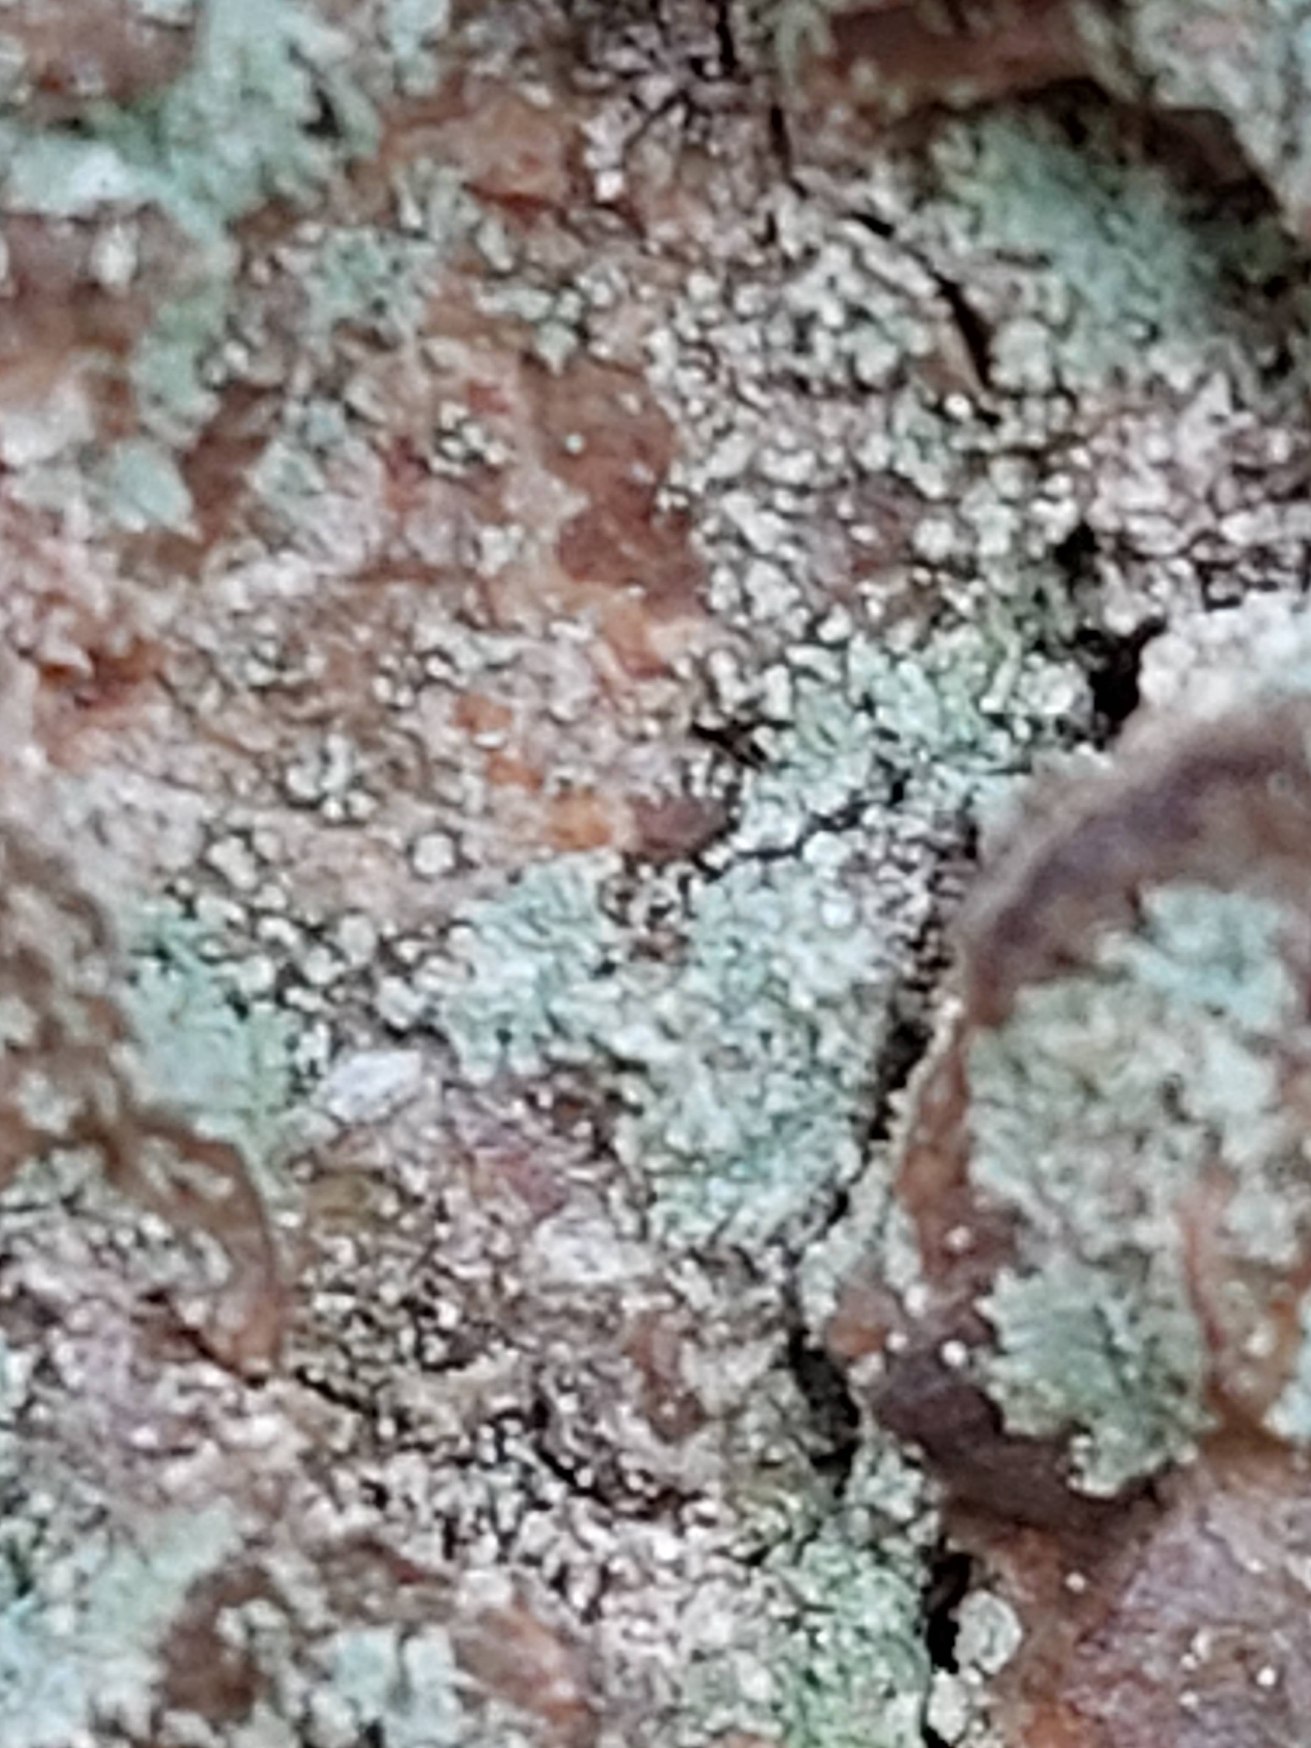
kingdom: Fungi
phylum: Ascomycota
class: Lecanoromycetes
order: Lecanorales
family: Cladoniaceae
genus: Cladonia
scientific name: Cladonia
